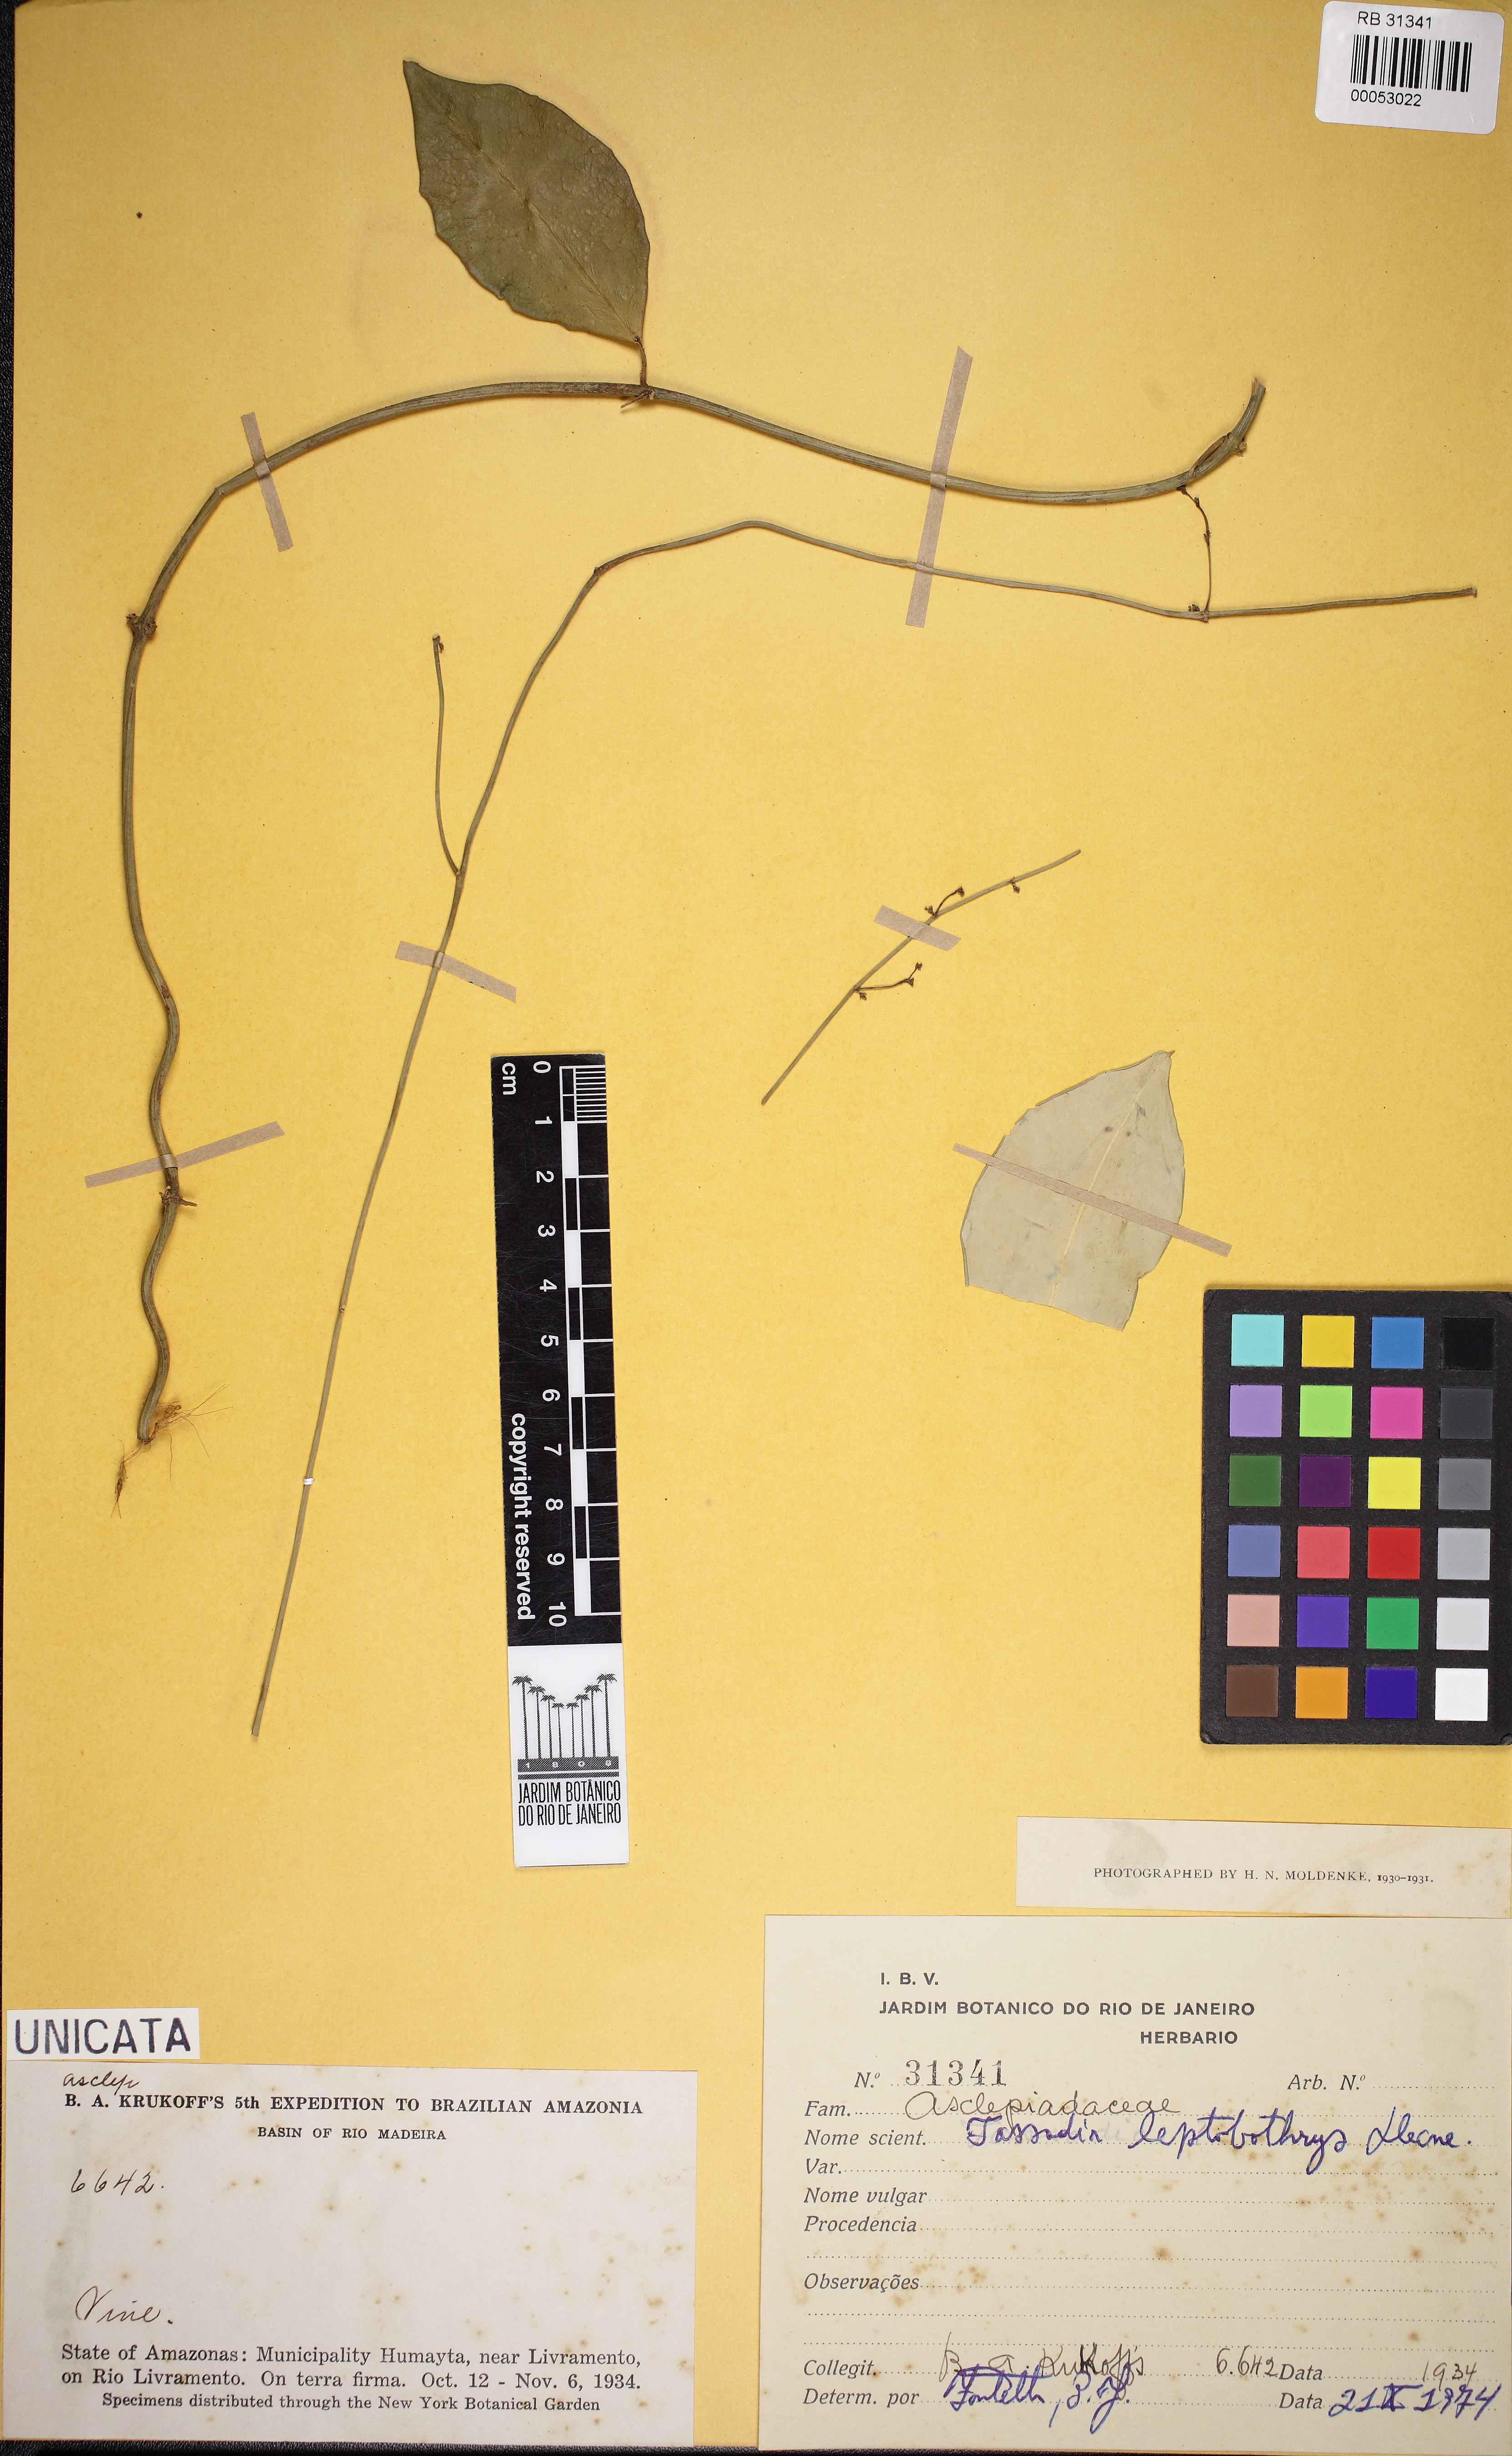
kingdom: Plantae
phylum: Tracheophyta
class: Magnoliopsida
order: Gentianales
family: Apocynaceae
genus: Tassadia
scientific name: Tassadia leptobotrys
